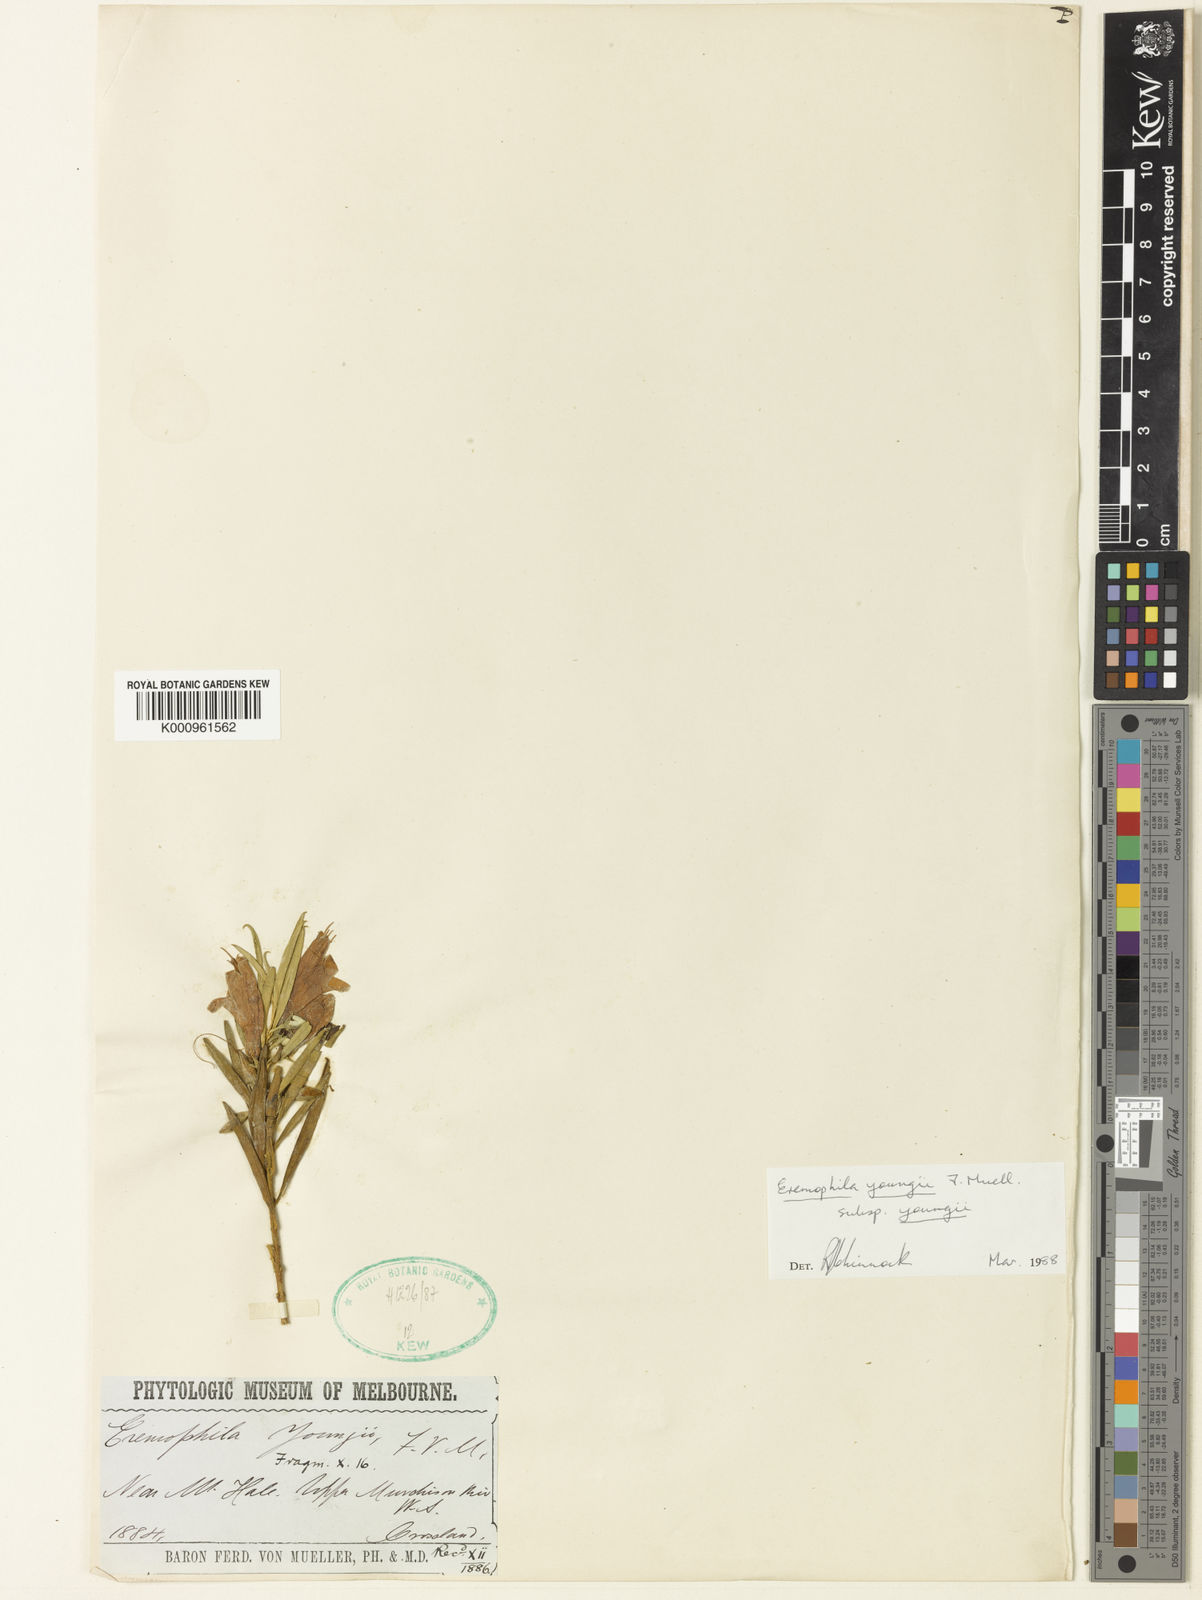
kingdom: Plantae
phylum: Tracheophyta
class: Magnoliopsida
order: Lamiales
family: Scrophulariaceae
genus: Eremophila
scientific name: Eremophila youngii
